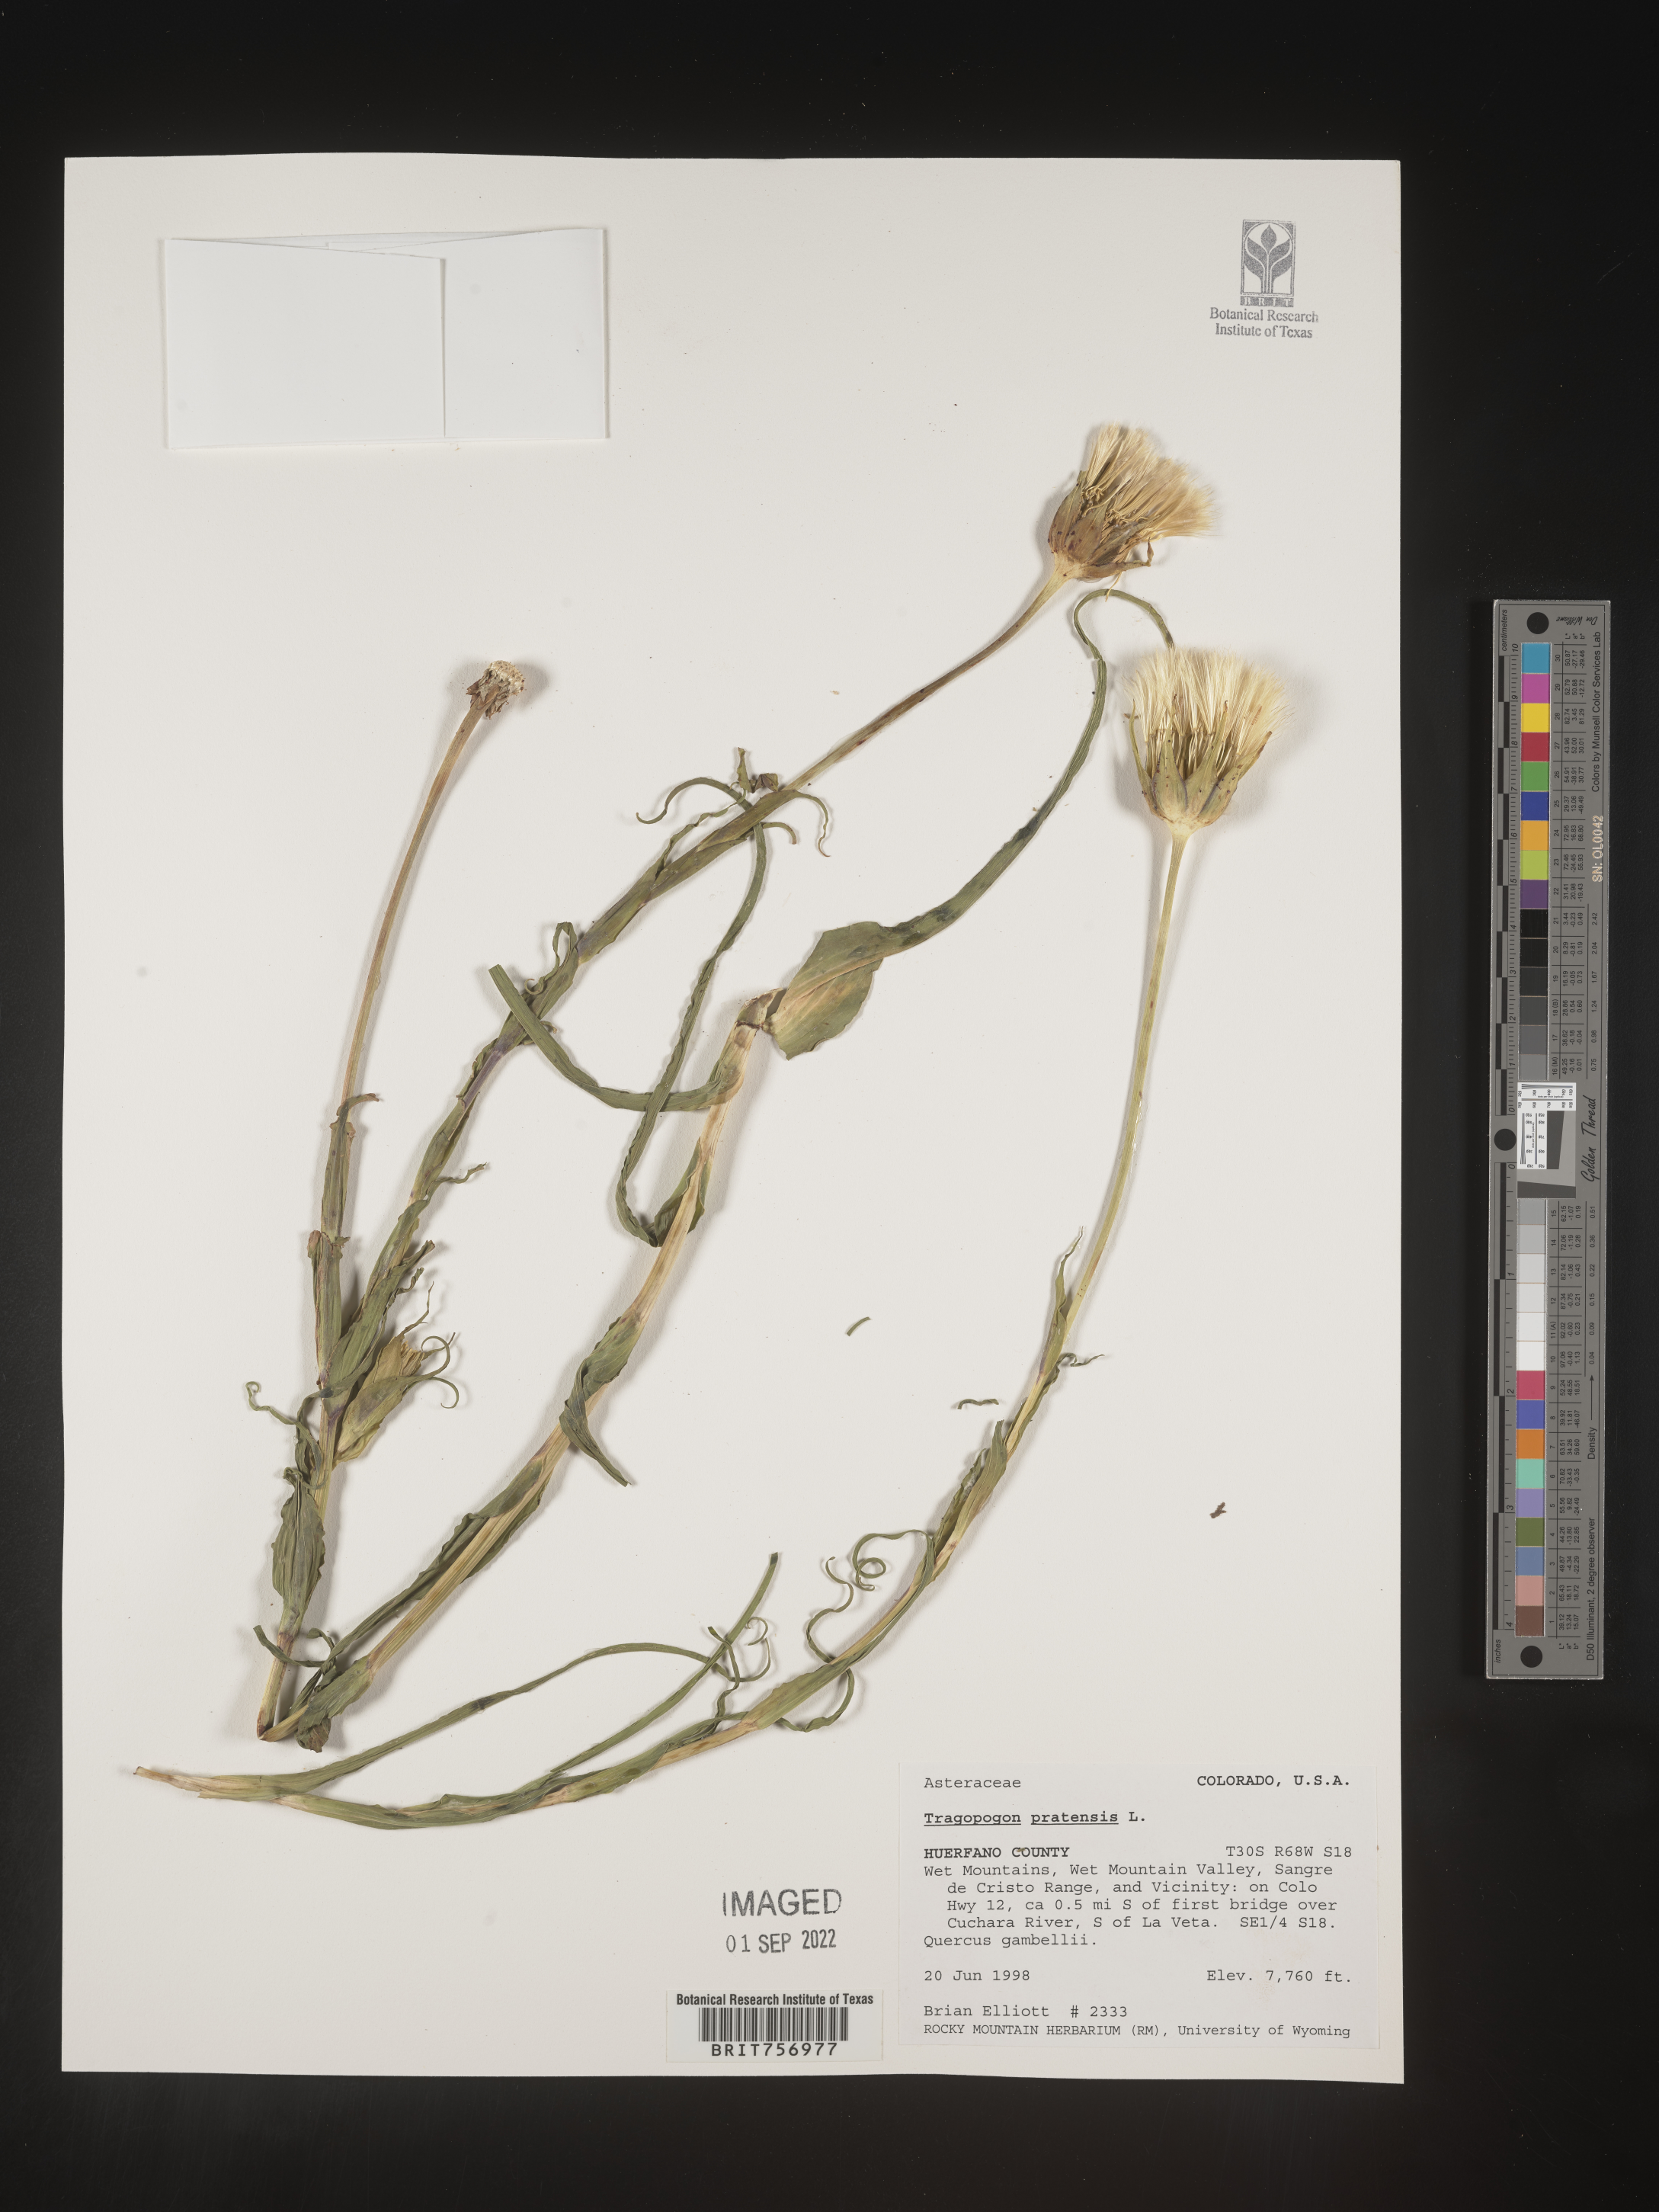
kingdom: Plantae
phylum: Tracheophyta
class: Magnoliopsida
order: Asterales
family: Asteraceae
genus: Tragopogon
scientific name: Tragopogon pratensis
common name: Goat's-beard
